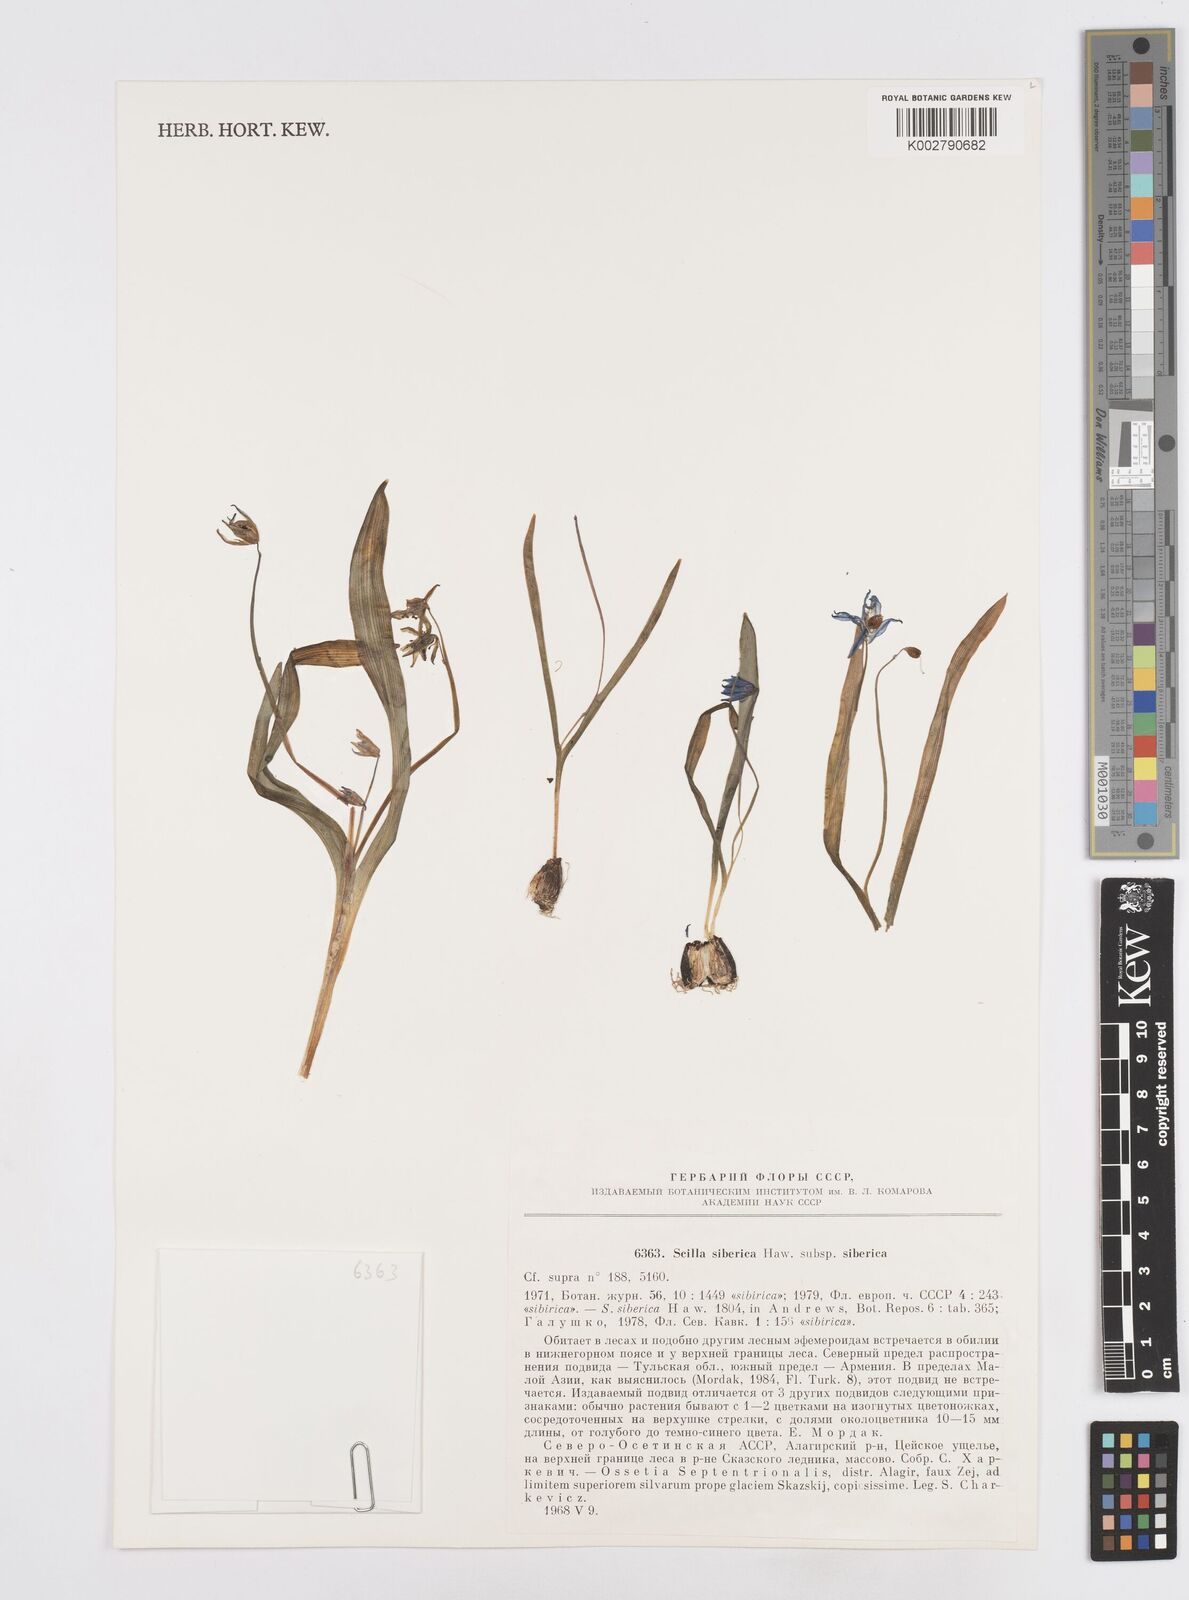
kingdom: Plantae
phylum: Tracheophyta
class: Liliopsida
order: Asparagales
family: Asparagaceae
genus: Scilla
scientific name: Scilla siberica
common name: Siberian squill
